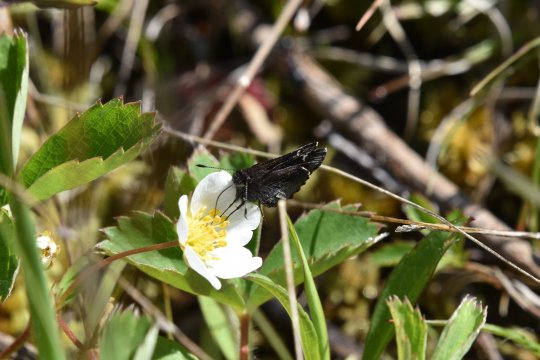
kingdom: Animalia
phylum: Arthropoda
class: Insecta
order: Lepidoptera
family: Hesperiidae
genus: Mastor
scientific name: Mastor vialis
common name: Common Roadside-Skipper
